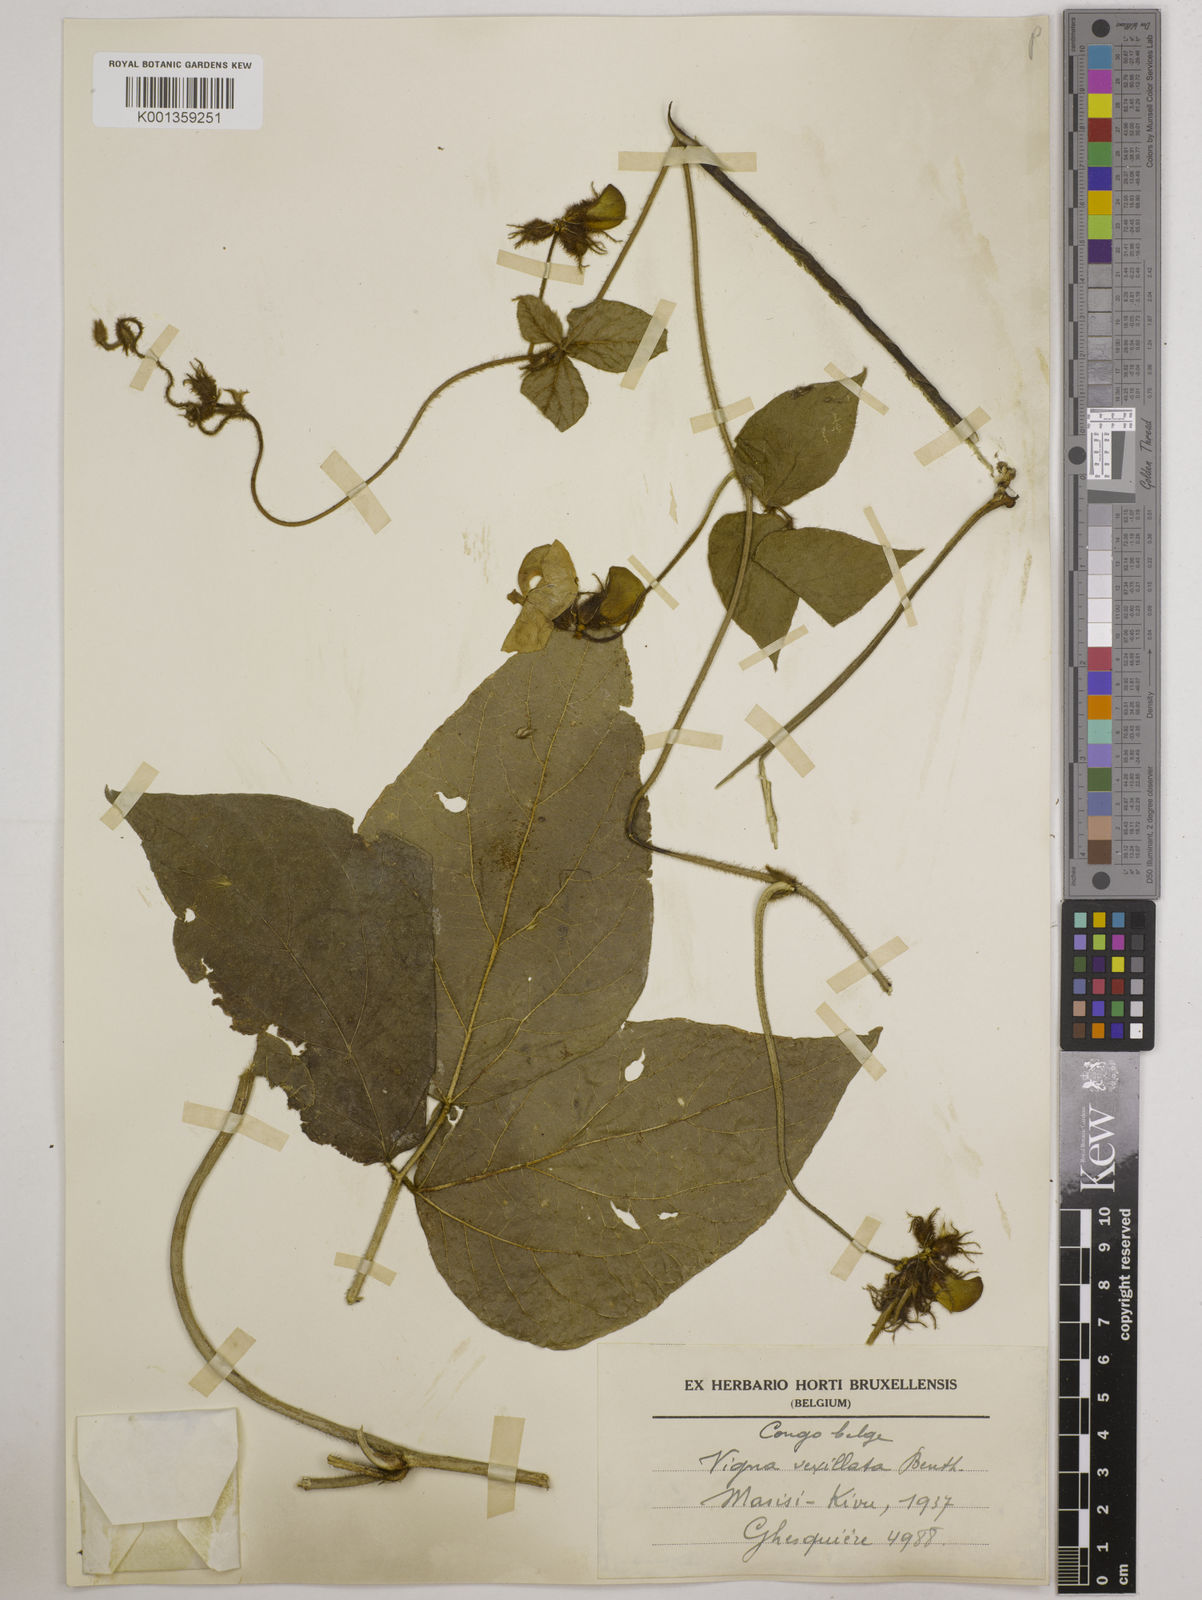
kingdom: Plantae
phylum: Tracheophyta
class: Magnoliopsida
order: Fabales
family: Fabaceae
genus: Vigna
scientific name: Vigna vexillata
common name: Zombi pea
